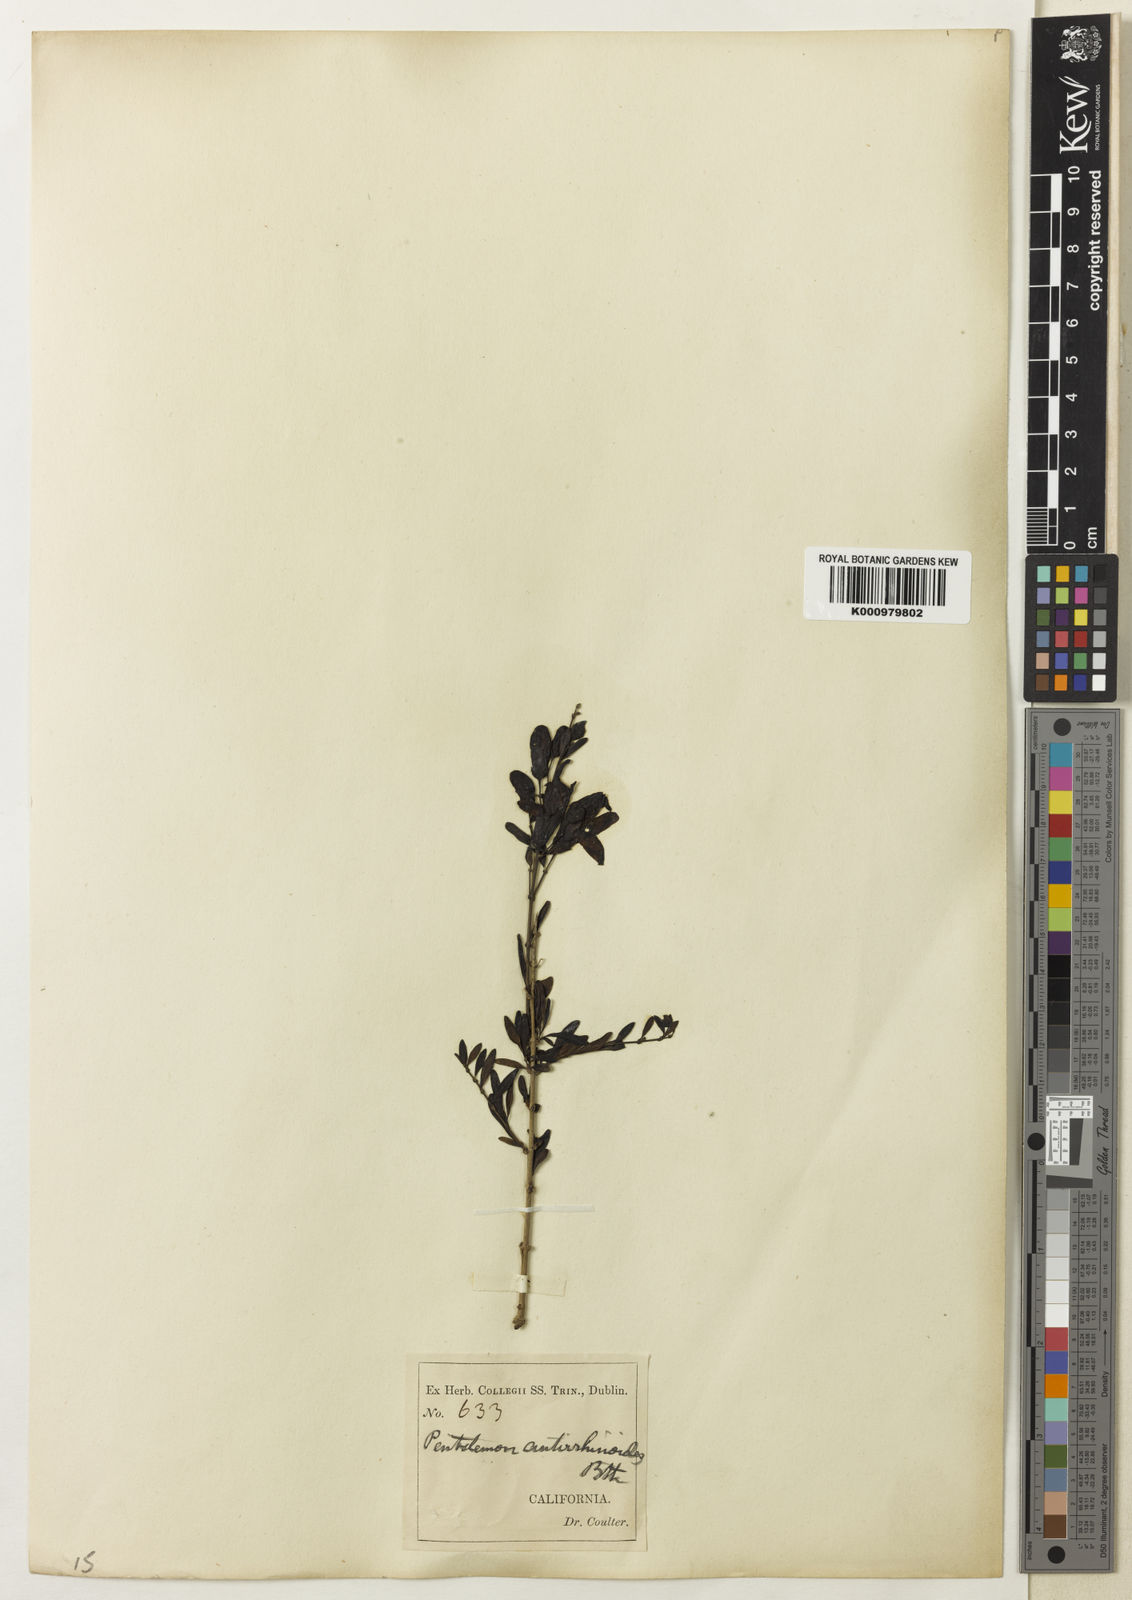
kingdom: Plantae
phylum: Tracheophyta
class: Magnoliopsida
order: Lamiales
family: Plantaginaceae
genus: Keckiella
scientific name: Keckiella antirrhinoides
